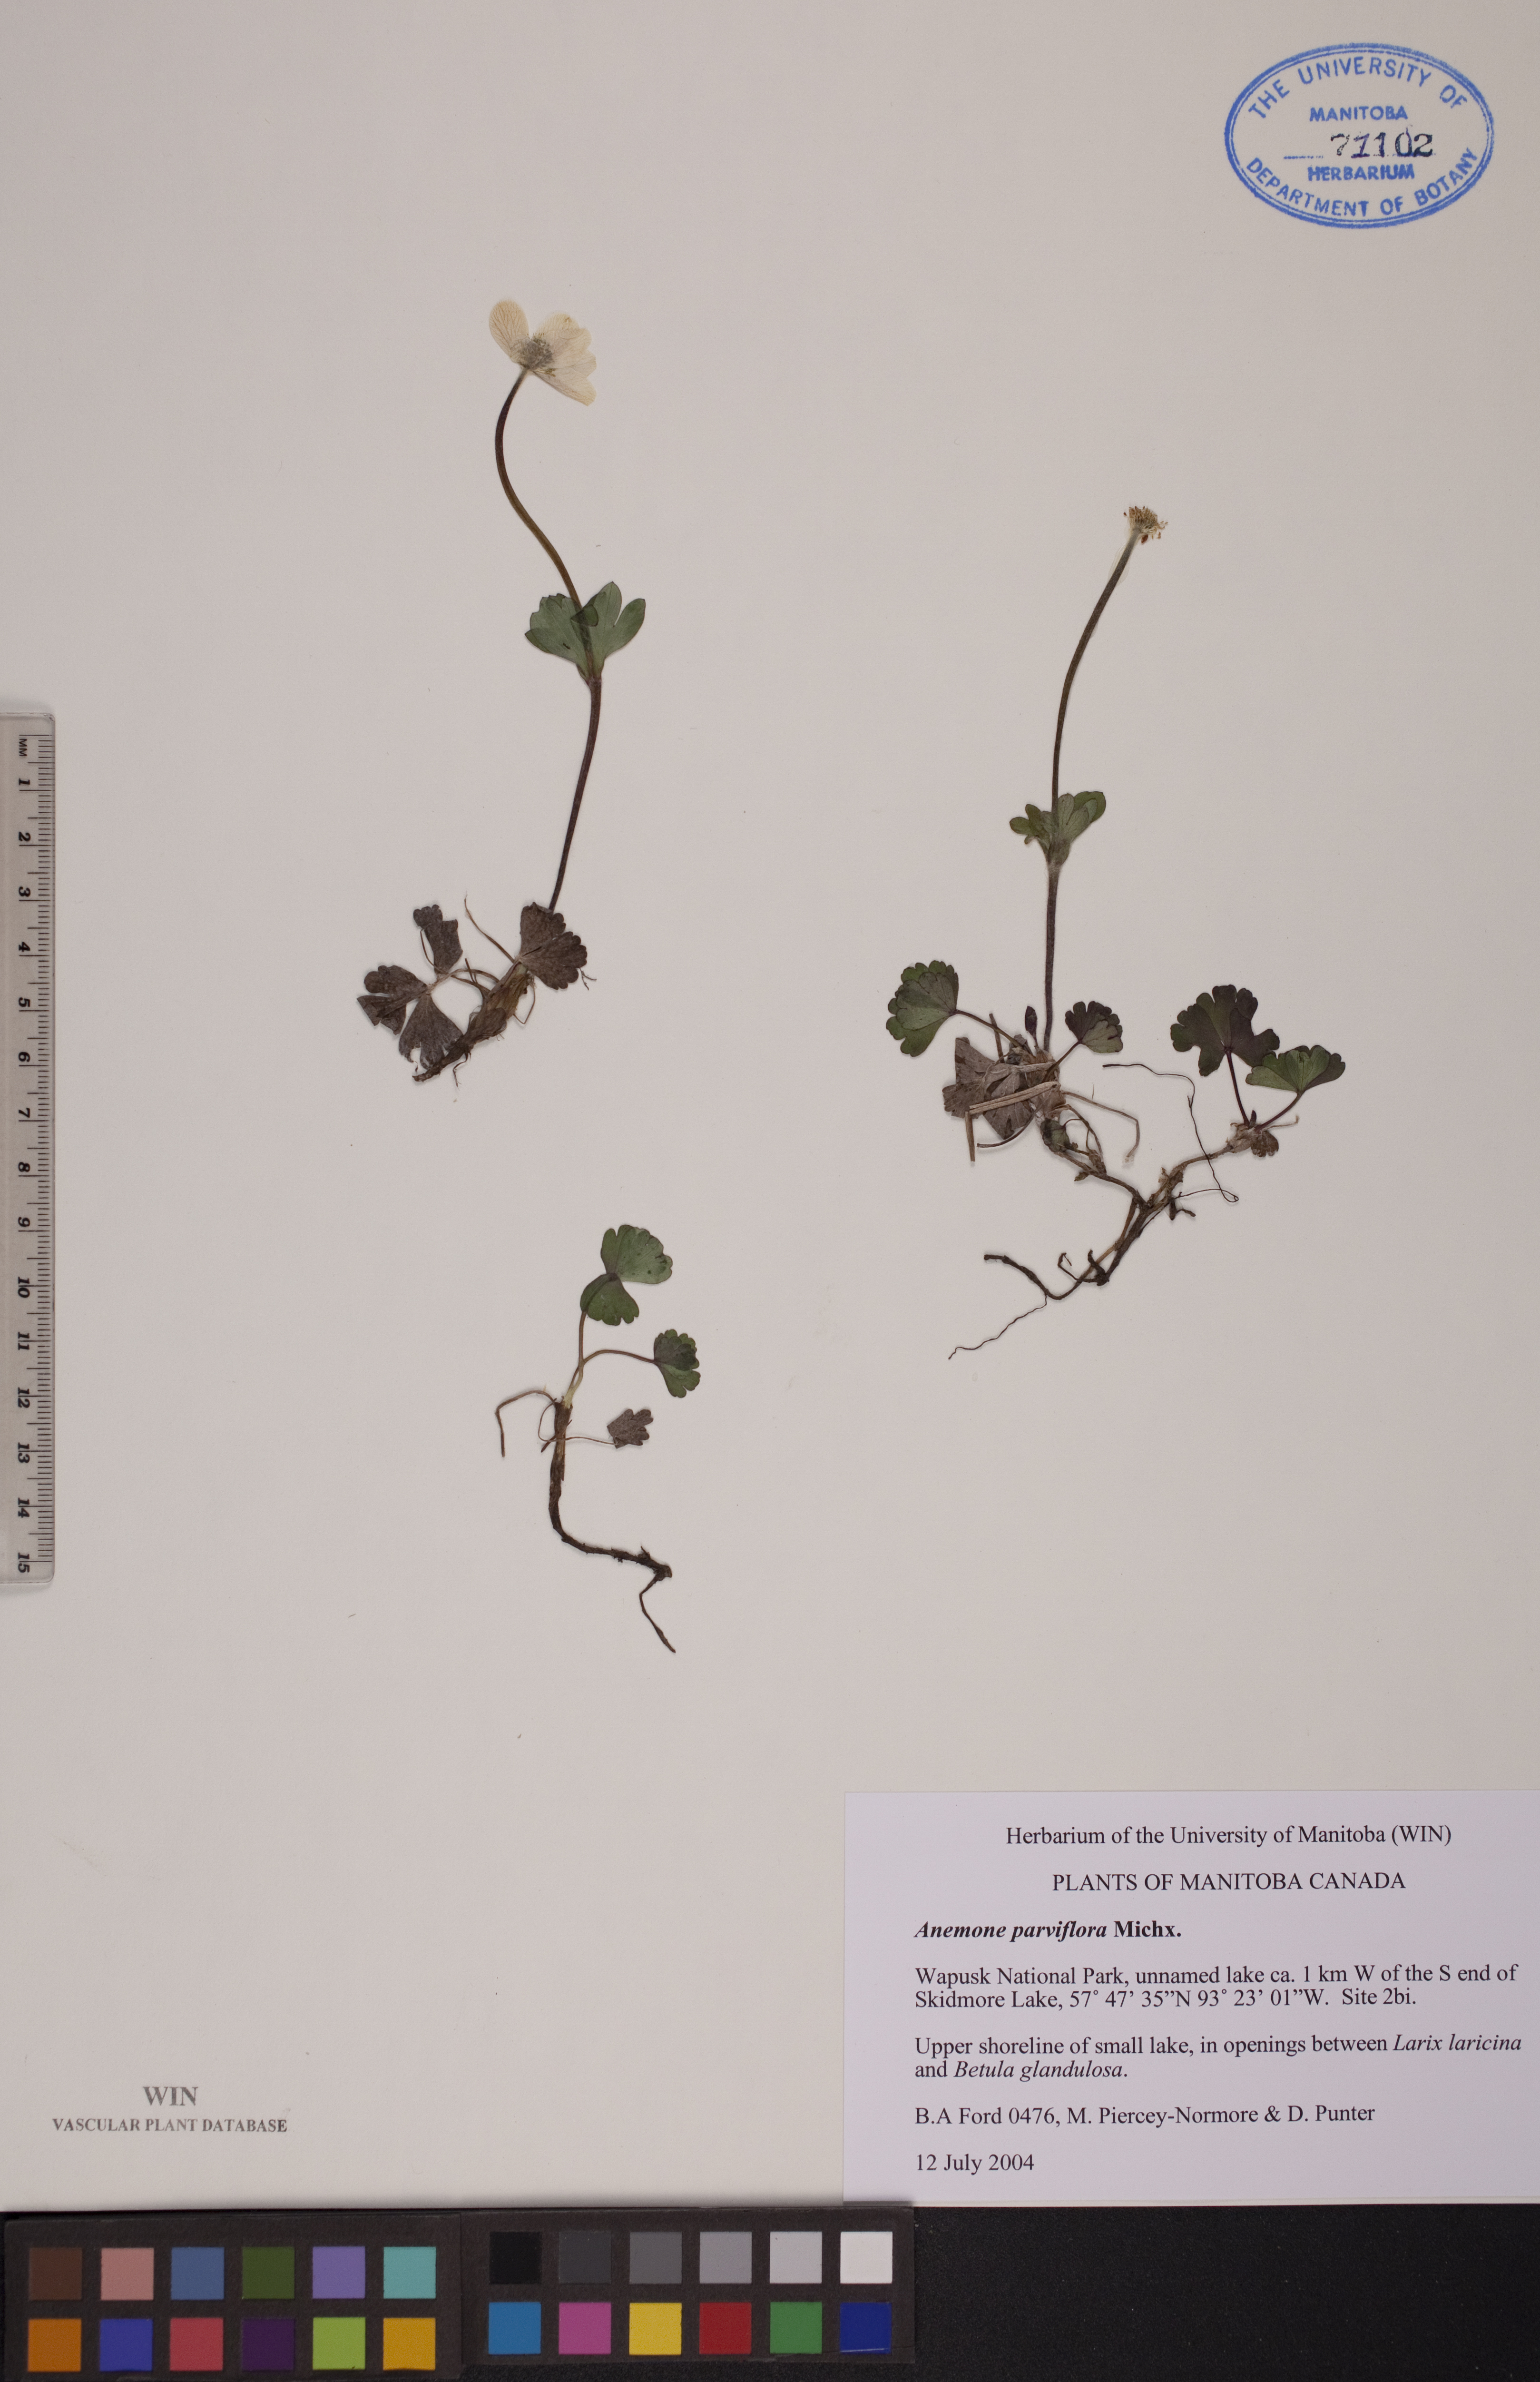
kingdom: Plantae
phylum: Tracheophyta
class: Magnoliopsida
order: Ranunculales
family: Ranunculaceae
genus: Anemone
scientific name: Anemone parviflora
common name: Northern anemone
